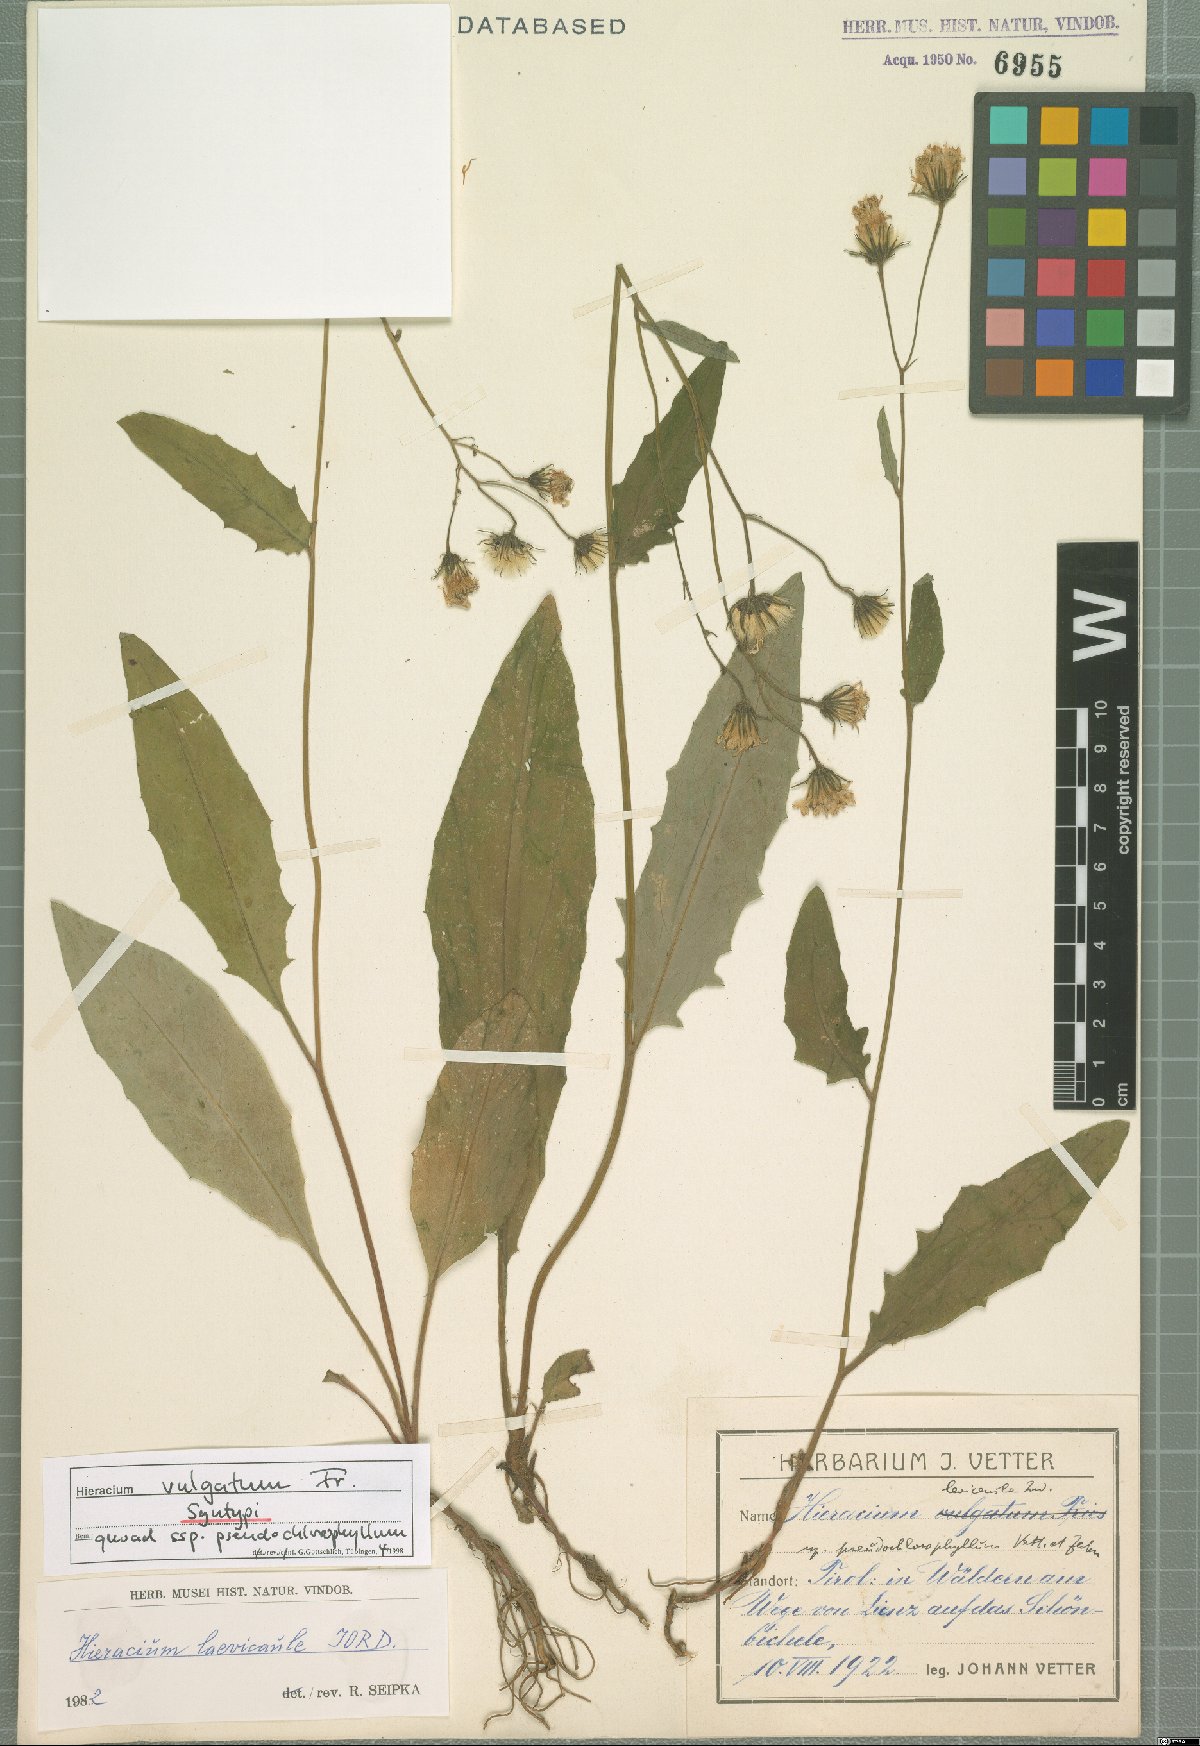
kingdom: Plantae
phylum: Tracheophyta
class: Magnoliopsida
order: Asterales
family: Asteraceae
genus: Hieracium
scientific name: Hieracium lachenalii
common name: Common hawkweed
